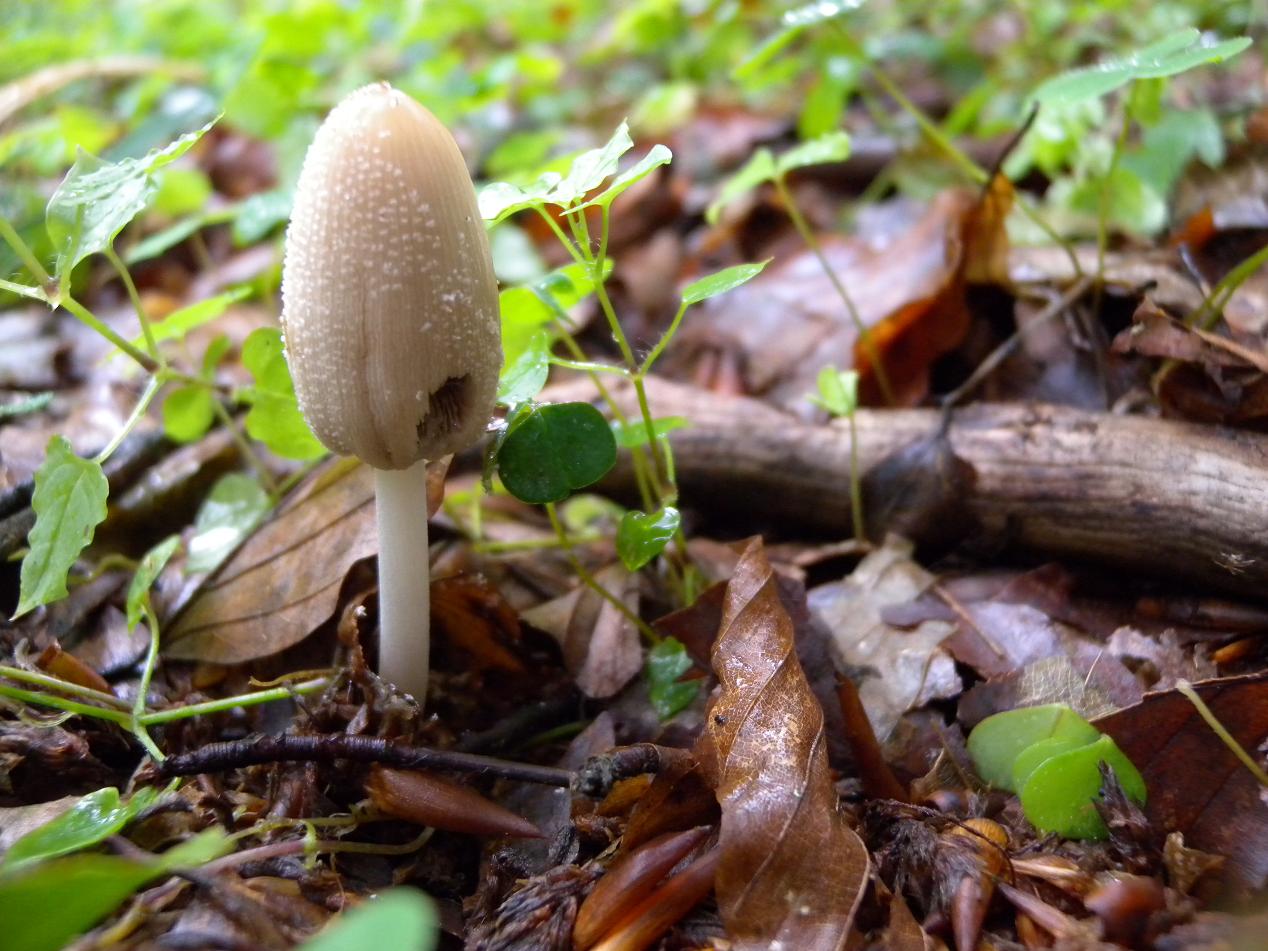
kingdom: Fungi
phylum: Basidiomycota
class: Agaricomycetes
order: Agaricales
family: Psathyrellaceae
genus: Coprinellus
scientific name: Coprinellus domesticus
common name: hus-blækhat
